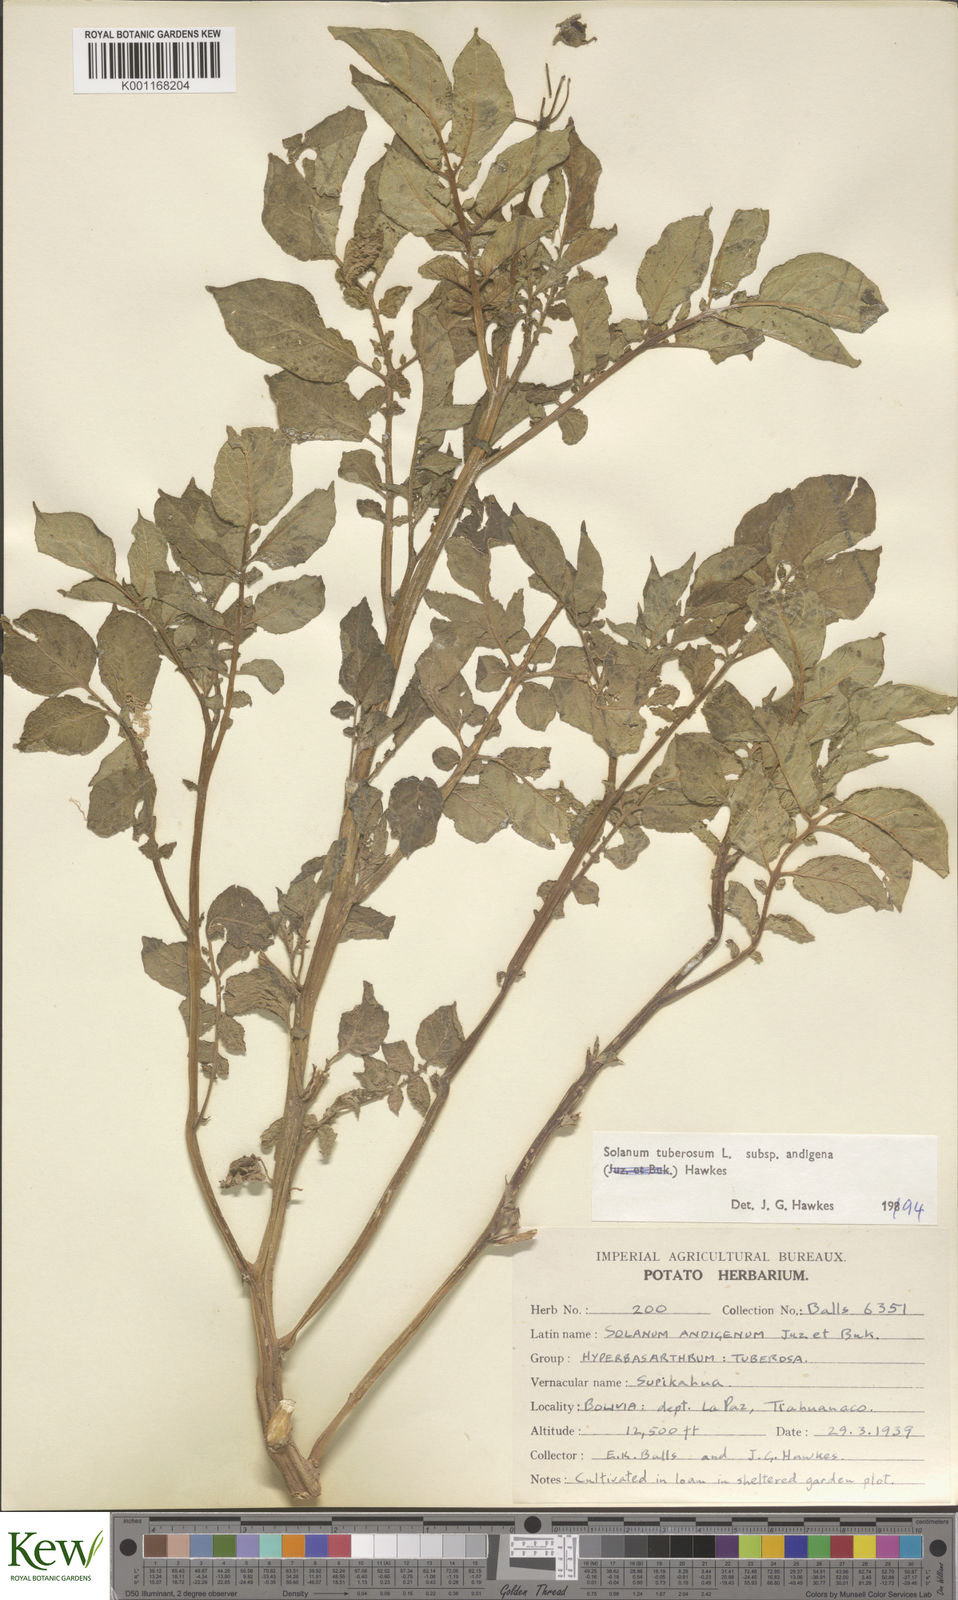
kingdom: Plantae
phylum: Tracheophyta
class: Magnoliopsida
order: Solanales
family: Solanaceae
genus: Solanum
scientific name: Solanum tuberosum
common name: Potato
